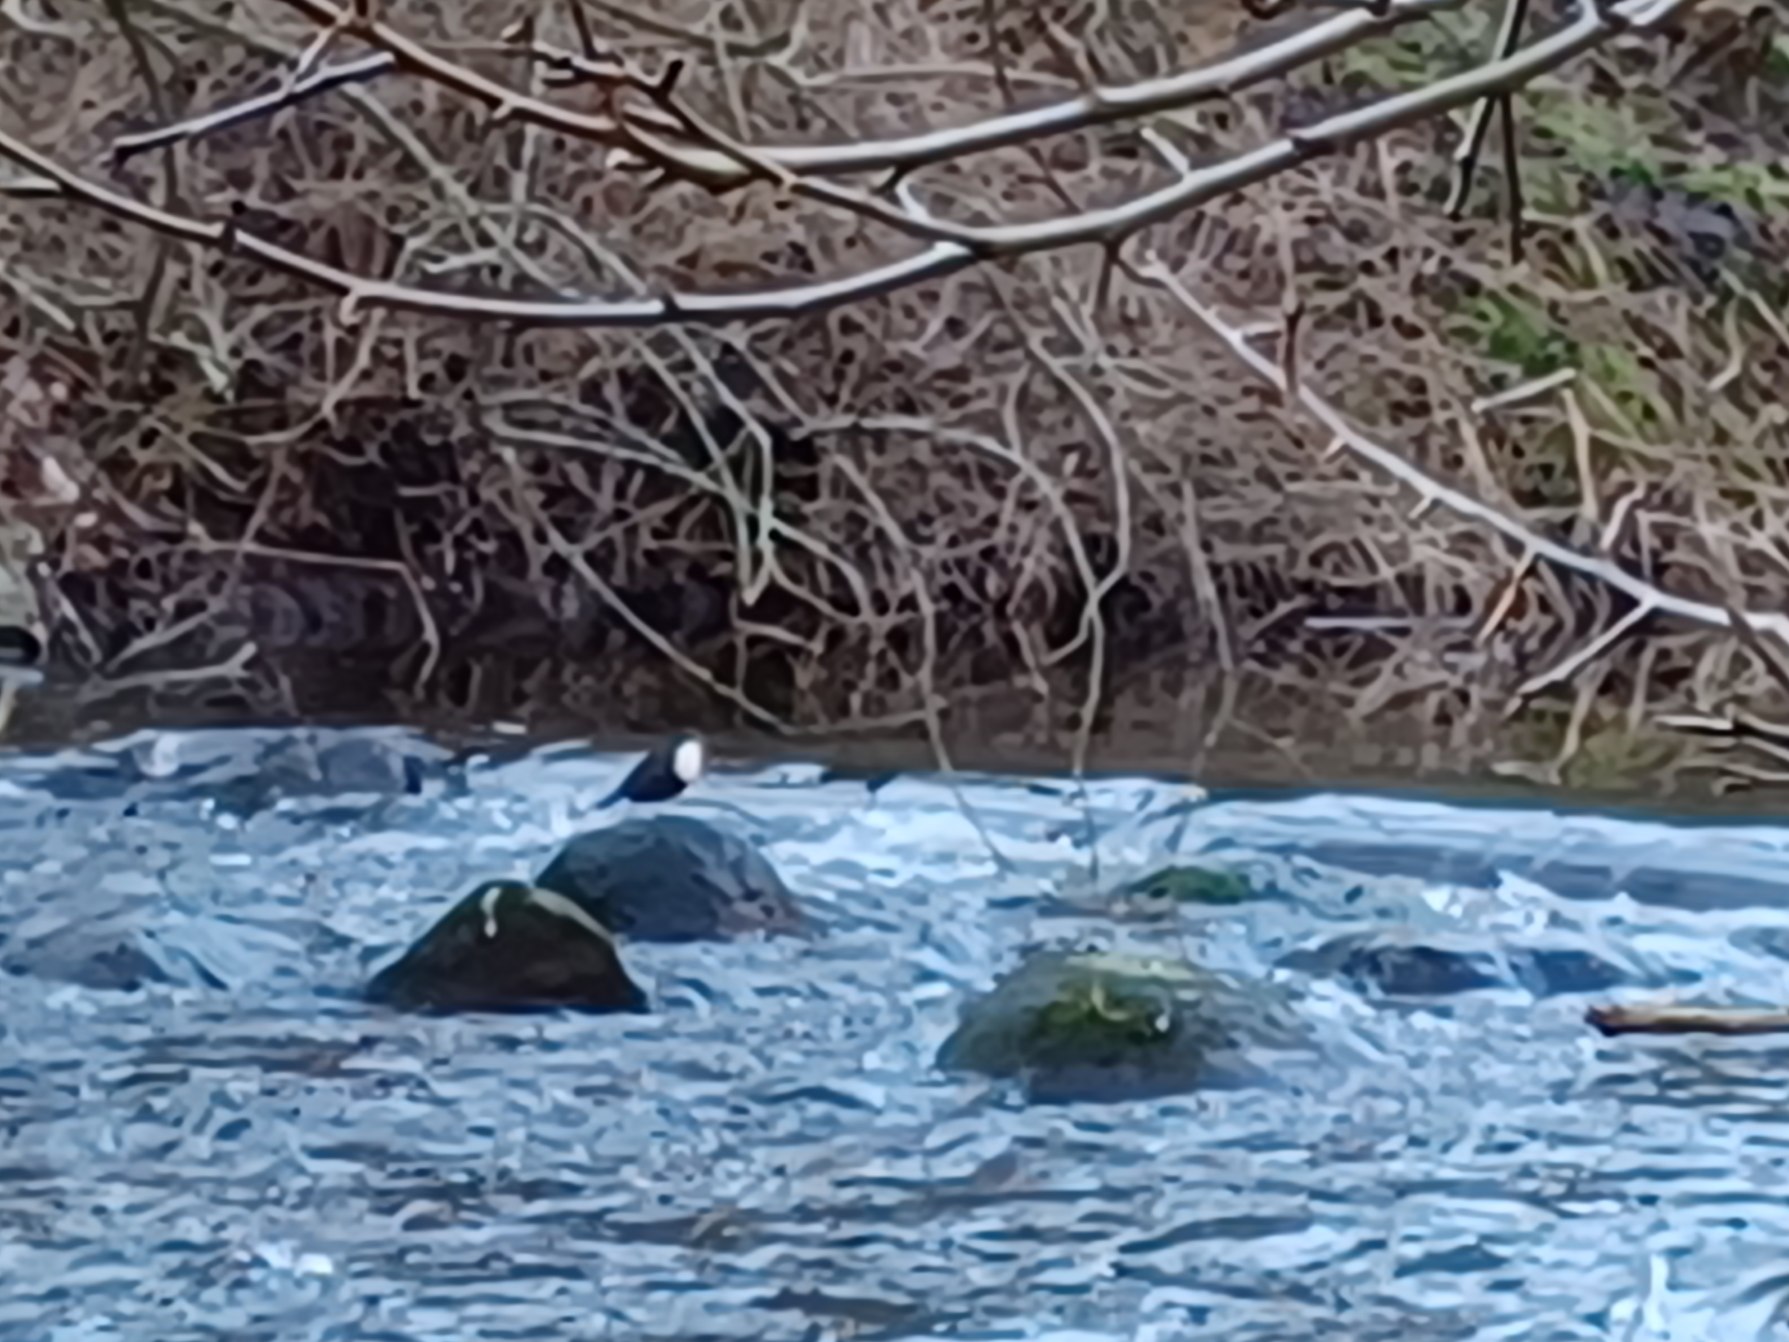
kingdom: Animalia
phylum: Chordata
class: Aves
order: Passeriformes
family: Cinclidae
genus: Cinclus
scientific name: Cinclus cinclus
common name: Vandstær
